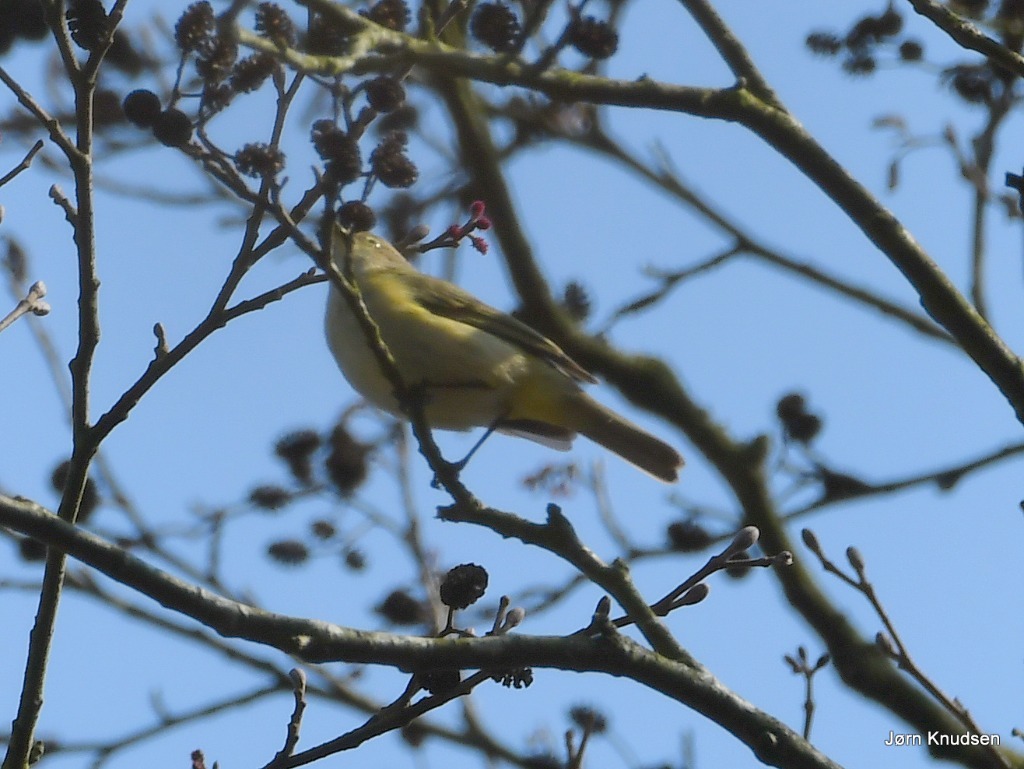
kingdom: Animalia
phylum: Chordata
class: Aves
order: Passeriformes
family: Phylloscopidae
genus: Phylloscopus
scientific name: Phylloscopus collybita
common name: Gransanger
